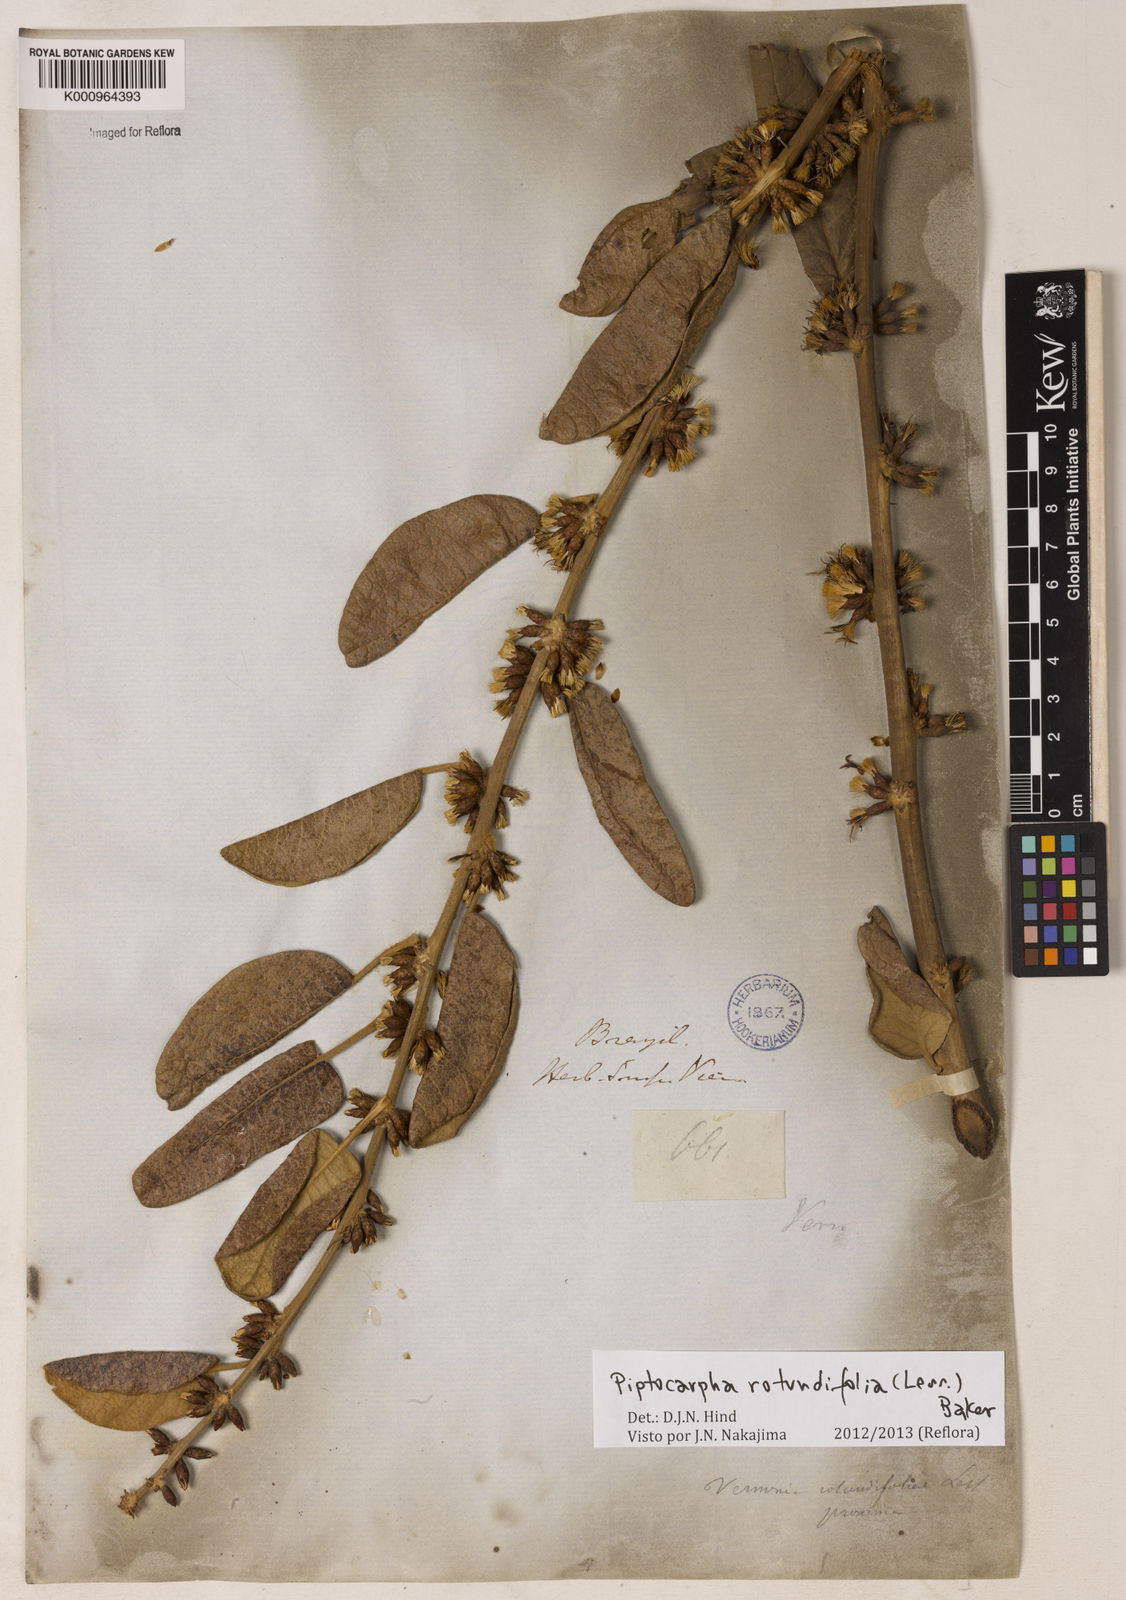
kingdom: Plantae
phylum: Tracheophyta
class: Magnoliopsida
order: Asterales
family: Asteraceae
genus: Piptocarpha
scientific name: Piptocarpha rotundifolia
